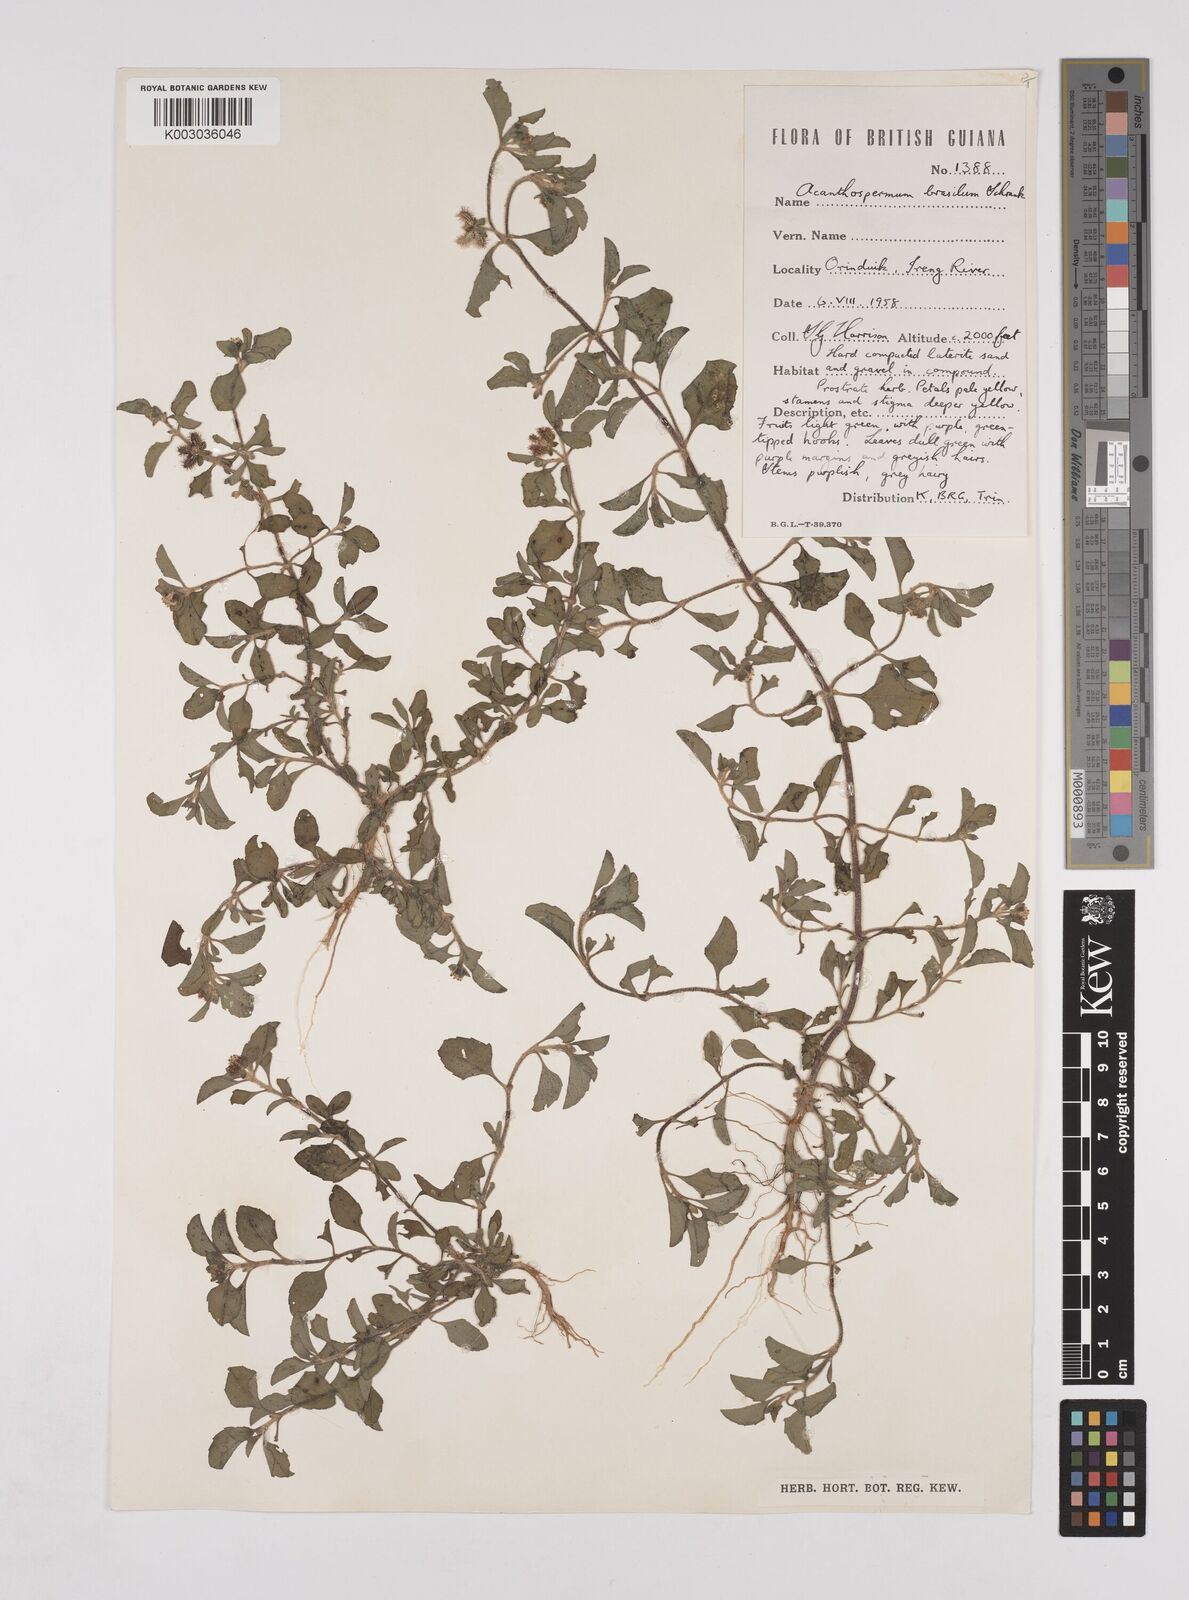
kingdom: Plantae
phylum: Tracheophyta
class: Magnoliopsida
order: Asterales
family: Asteraceae
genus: Acanthospermum
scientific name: Acanthospermum australe
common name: Paraguayan starbur
